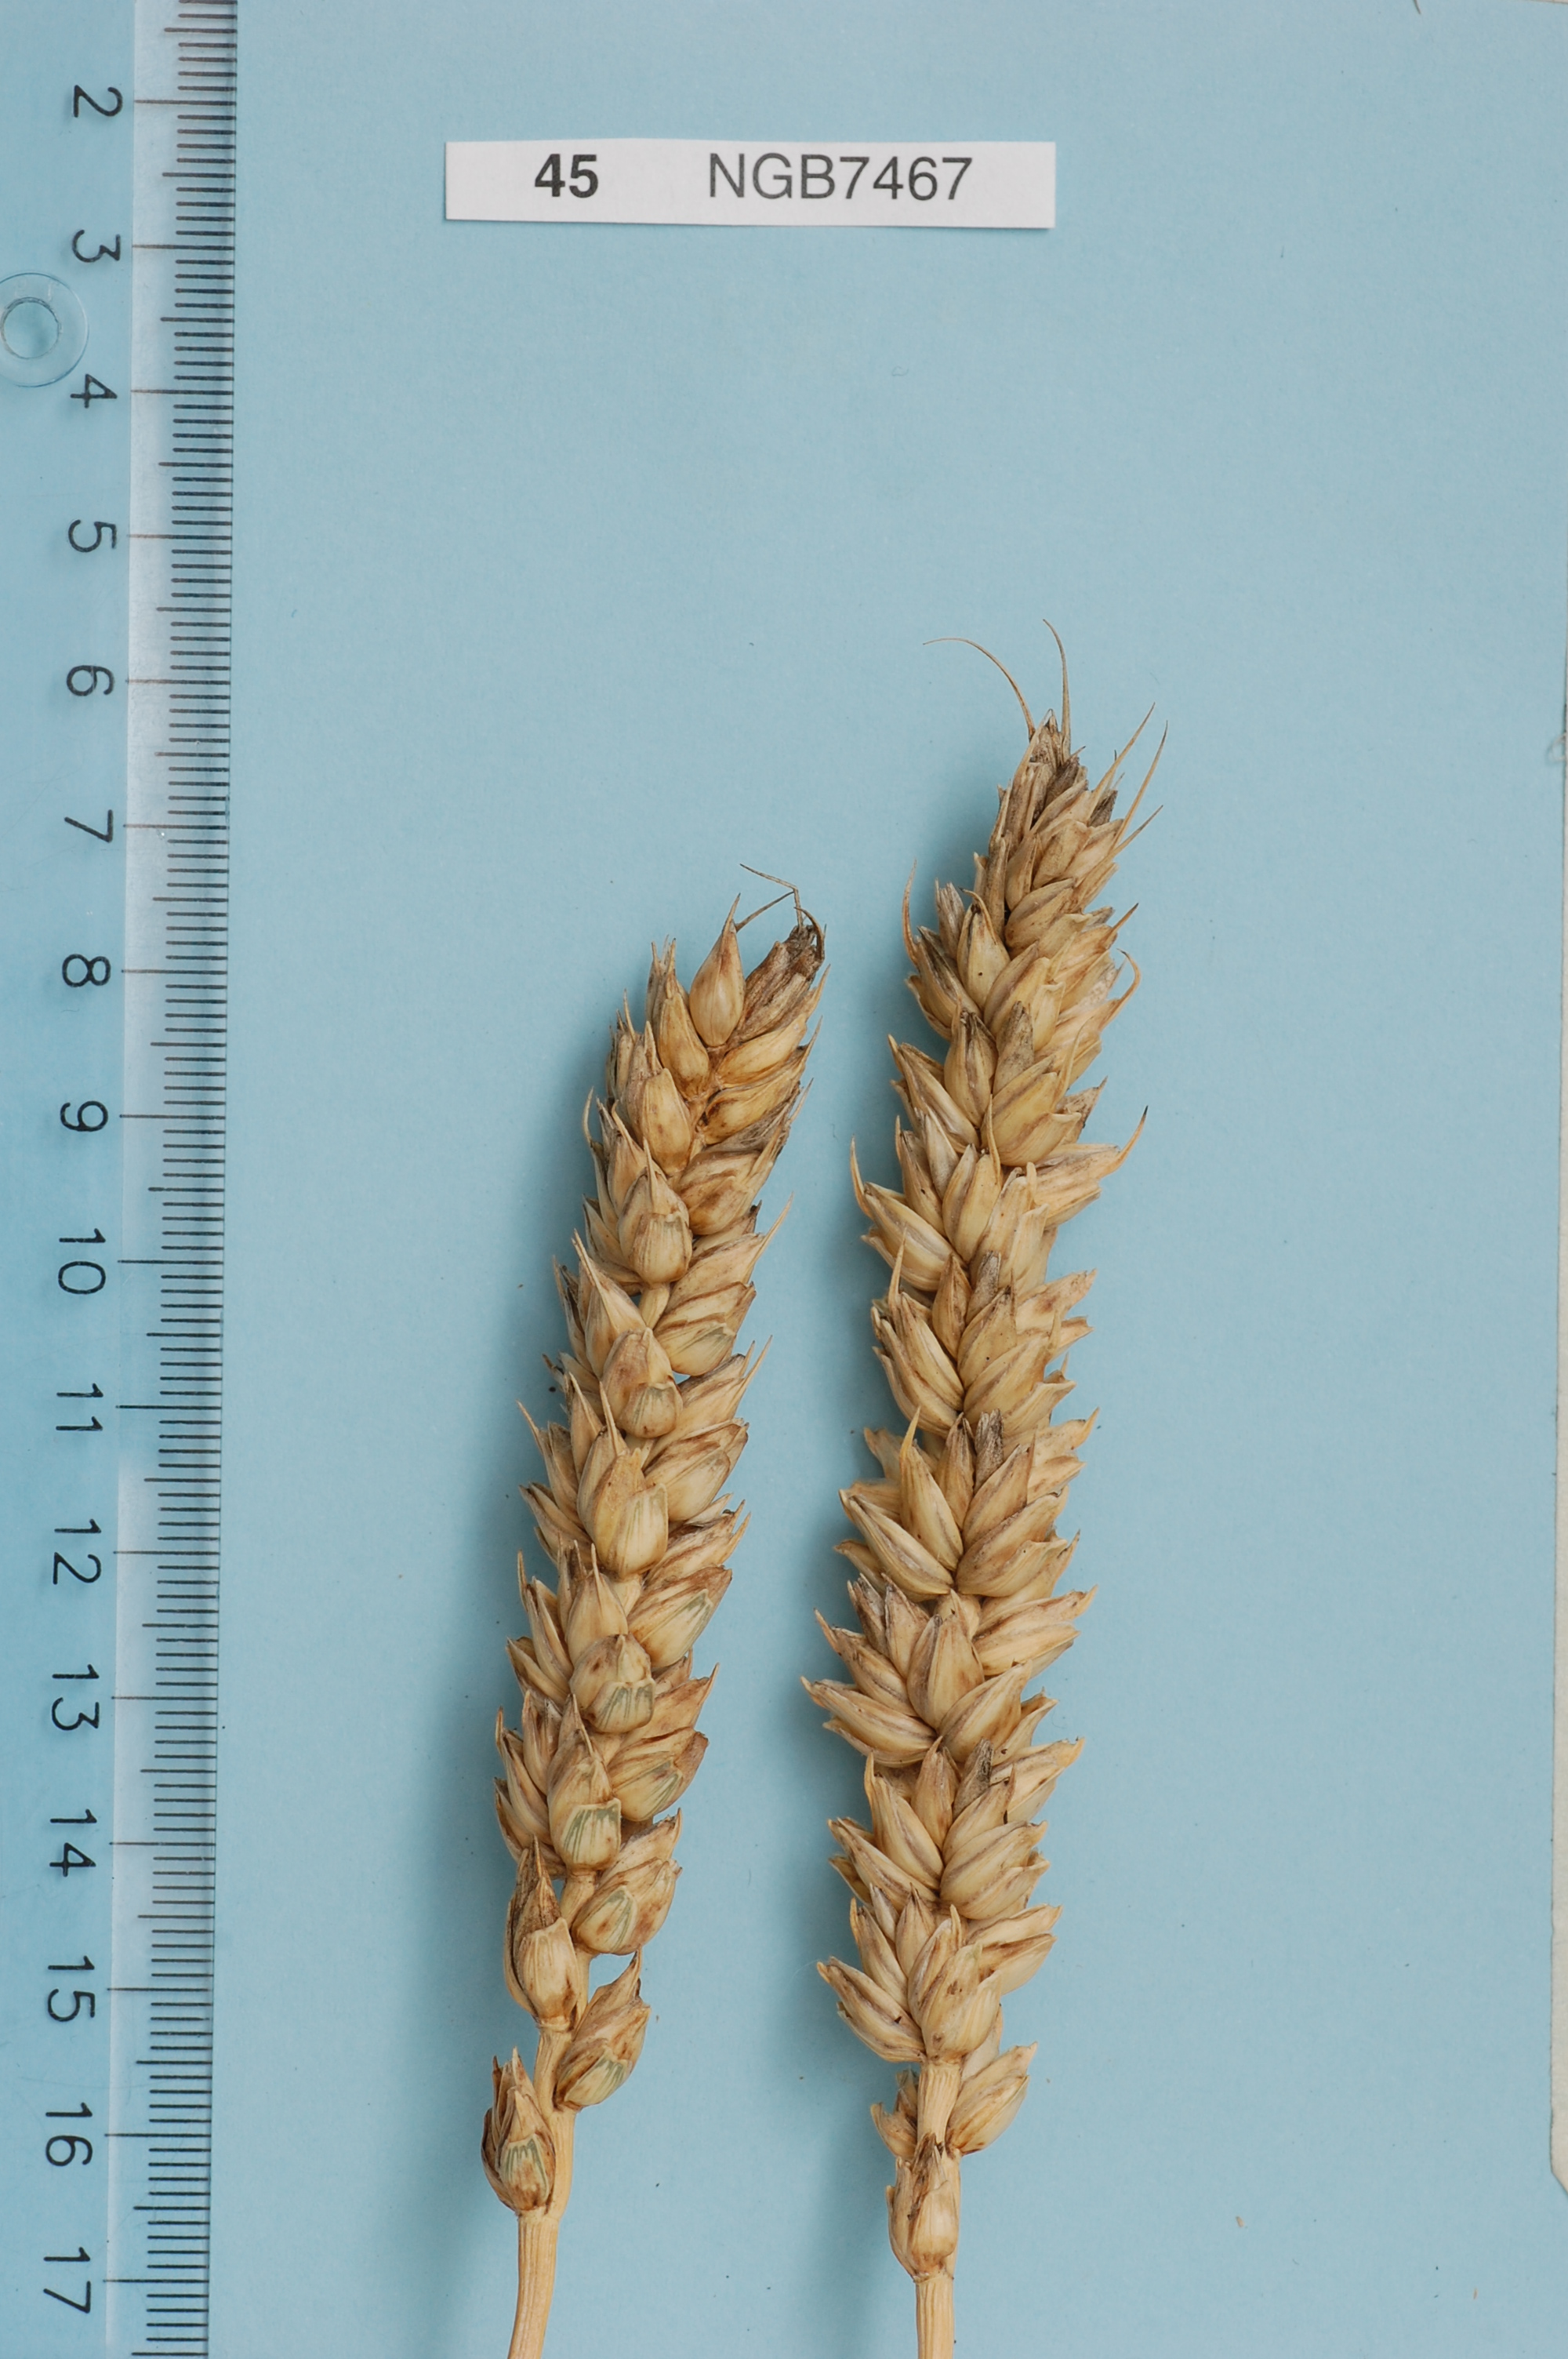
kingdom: Plantae
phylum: Tracheophyta
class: Liliopsida
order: Poales
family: Poaceae
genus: Triticum
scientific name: Triticum aestivum
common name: Common wheat
